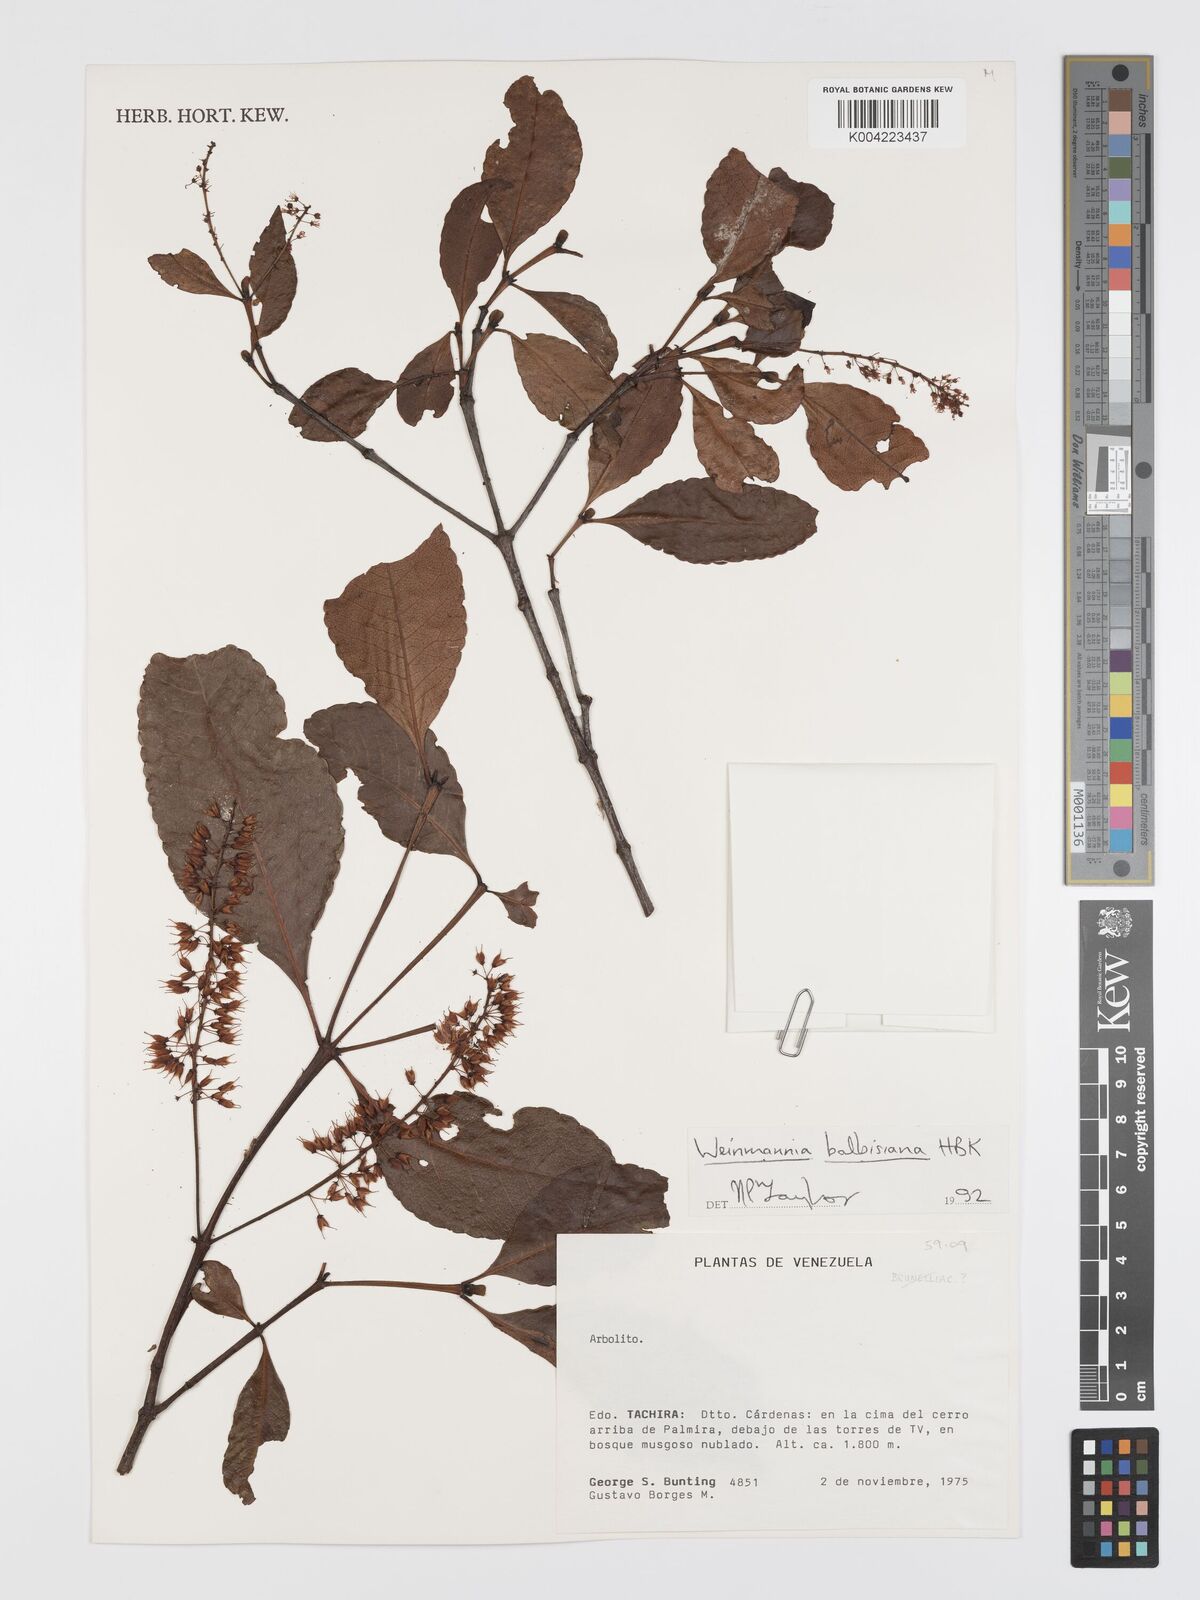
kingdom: Plantae
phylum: Tracheophyta
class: Magnoliopsida
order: Oxalidales
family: Cunoniaceae
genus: Weinmannia
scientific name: Weinmannia balbisana
